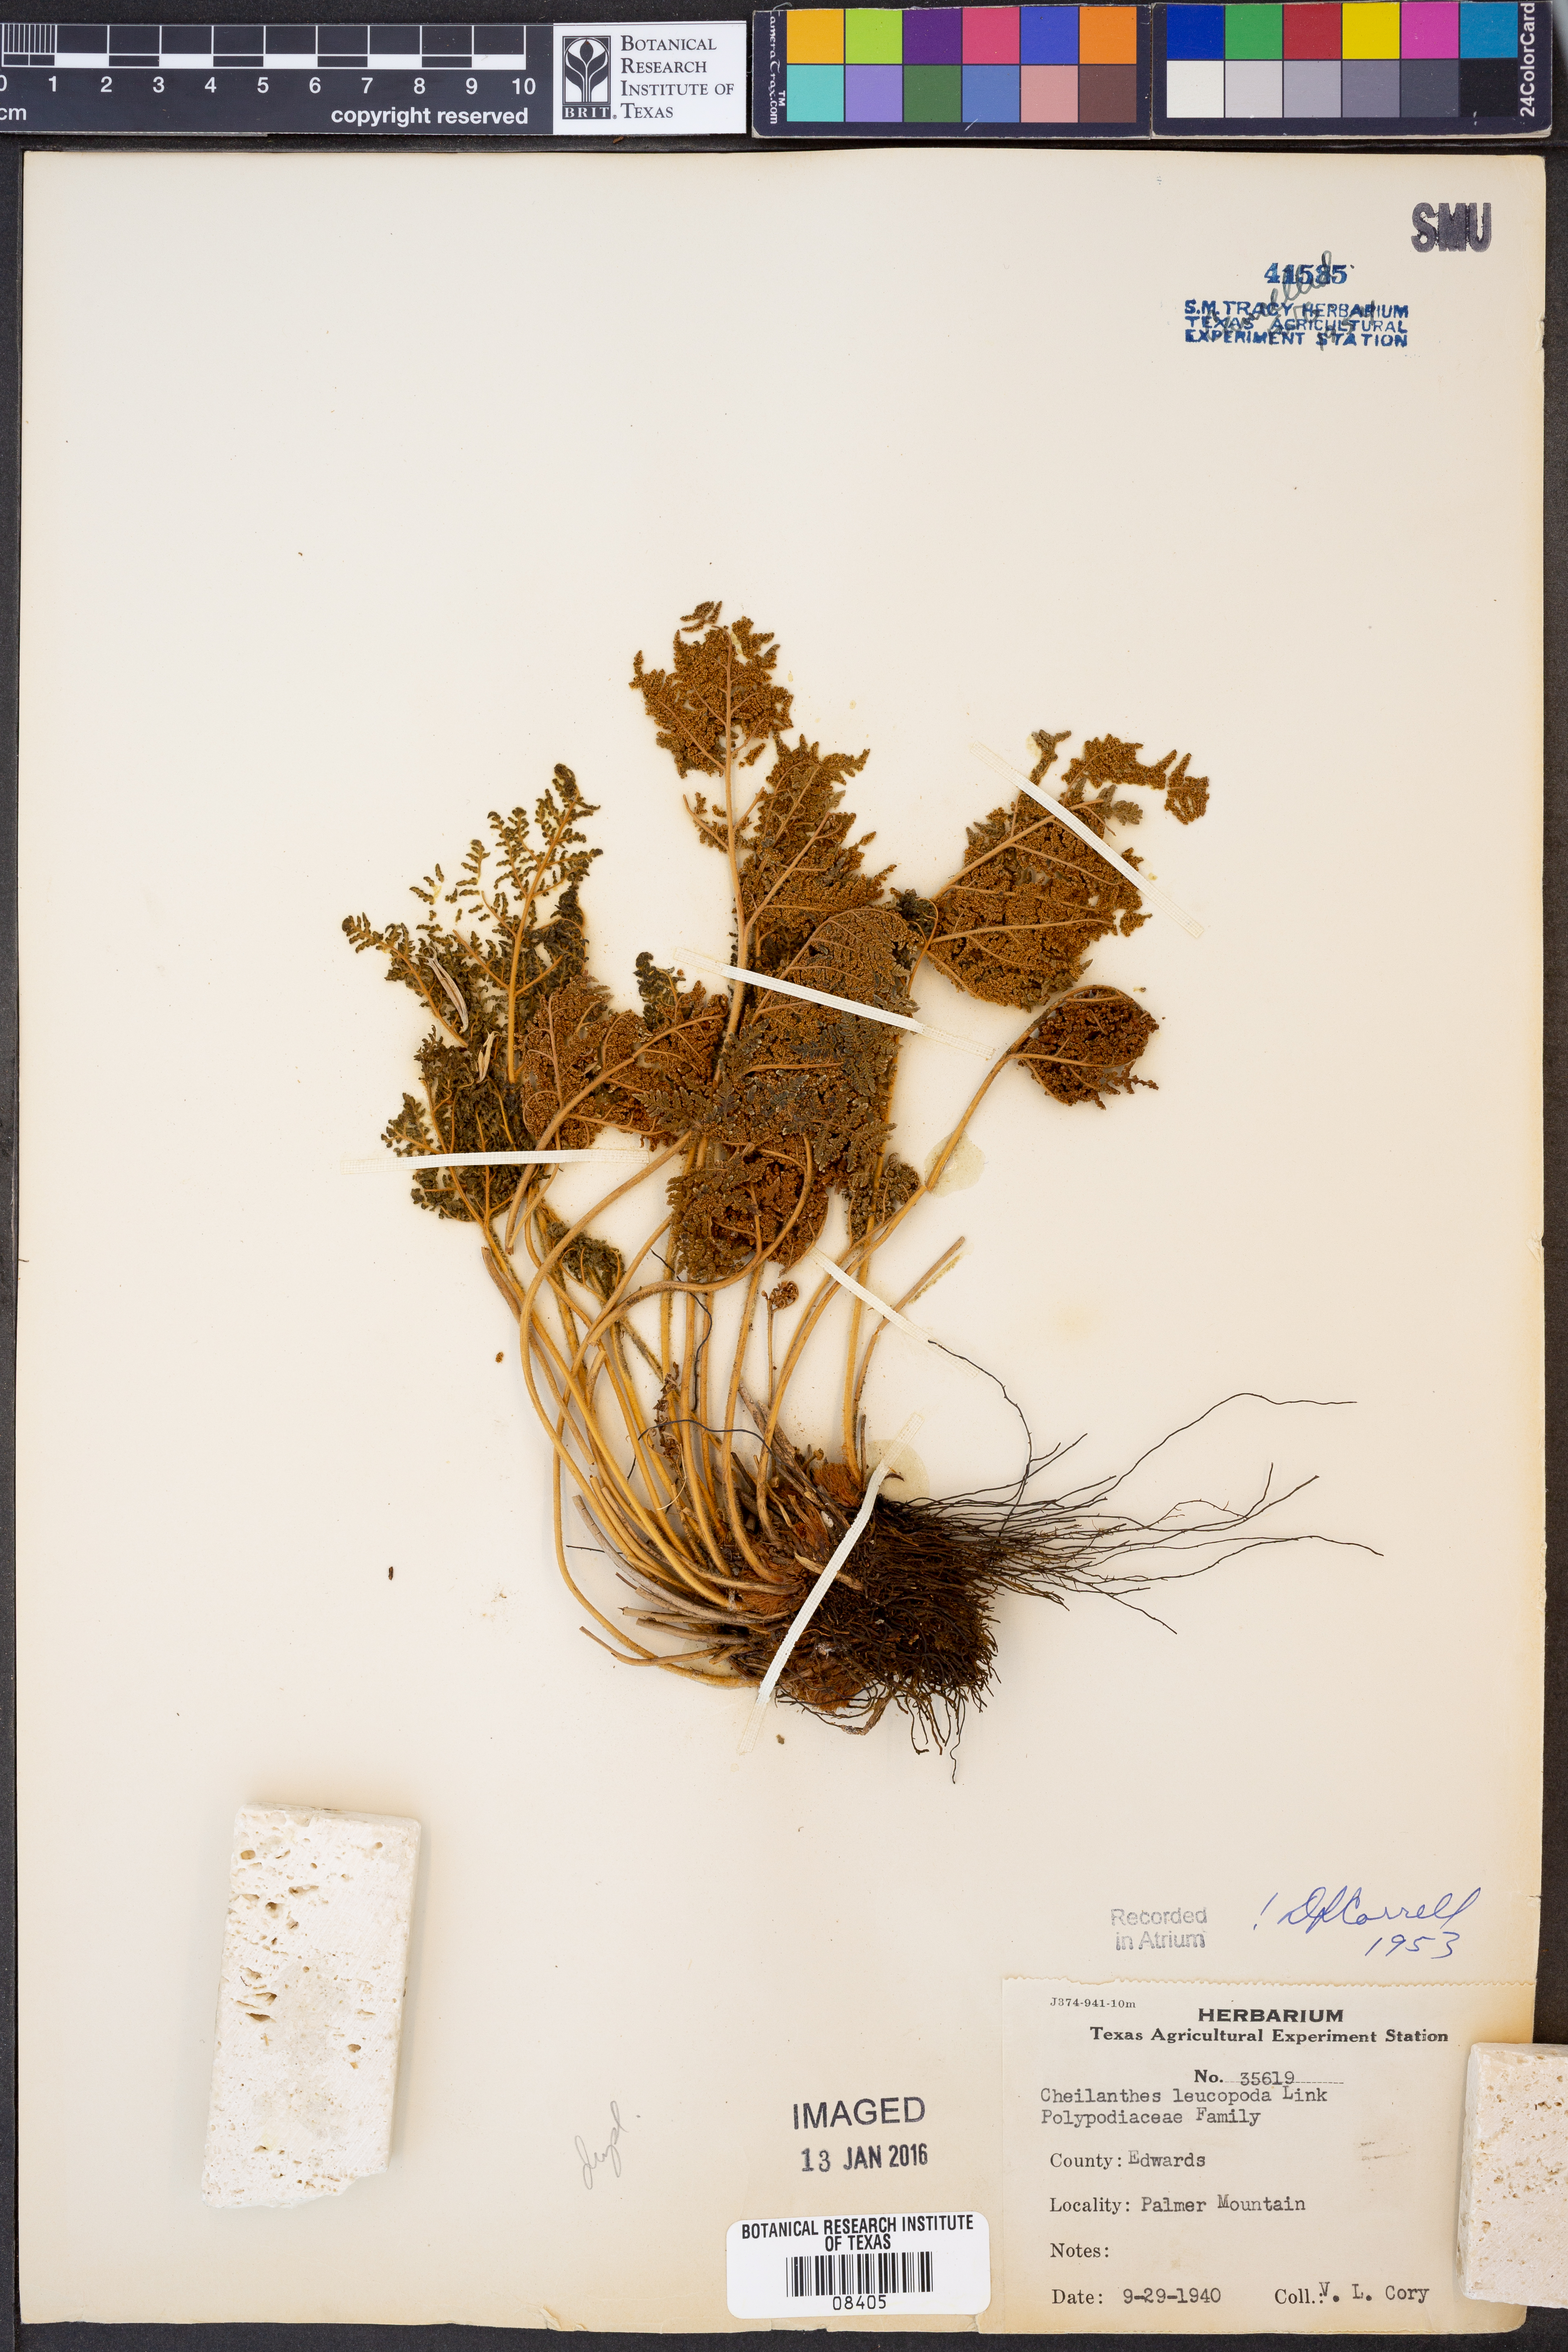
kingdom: Plantae
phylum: Tracheophyta
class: Polypodiopsida
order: Polypodiales
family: Pteridaceae
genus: Cheilanthes
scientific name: Cheilanthes leucopoda
